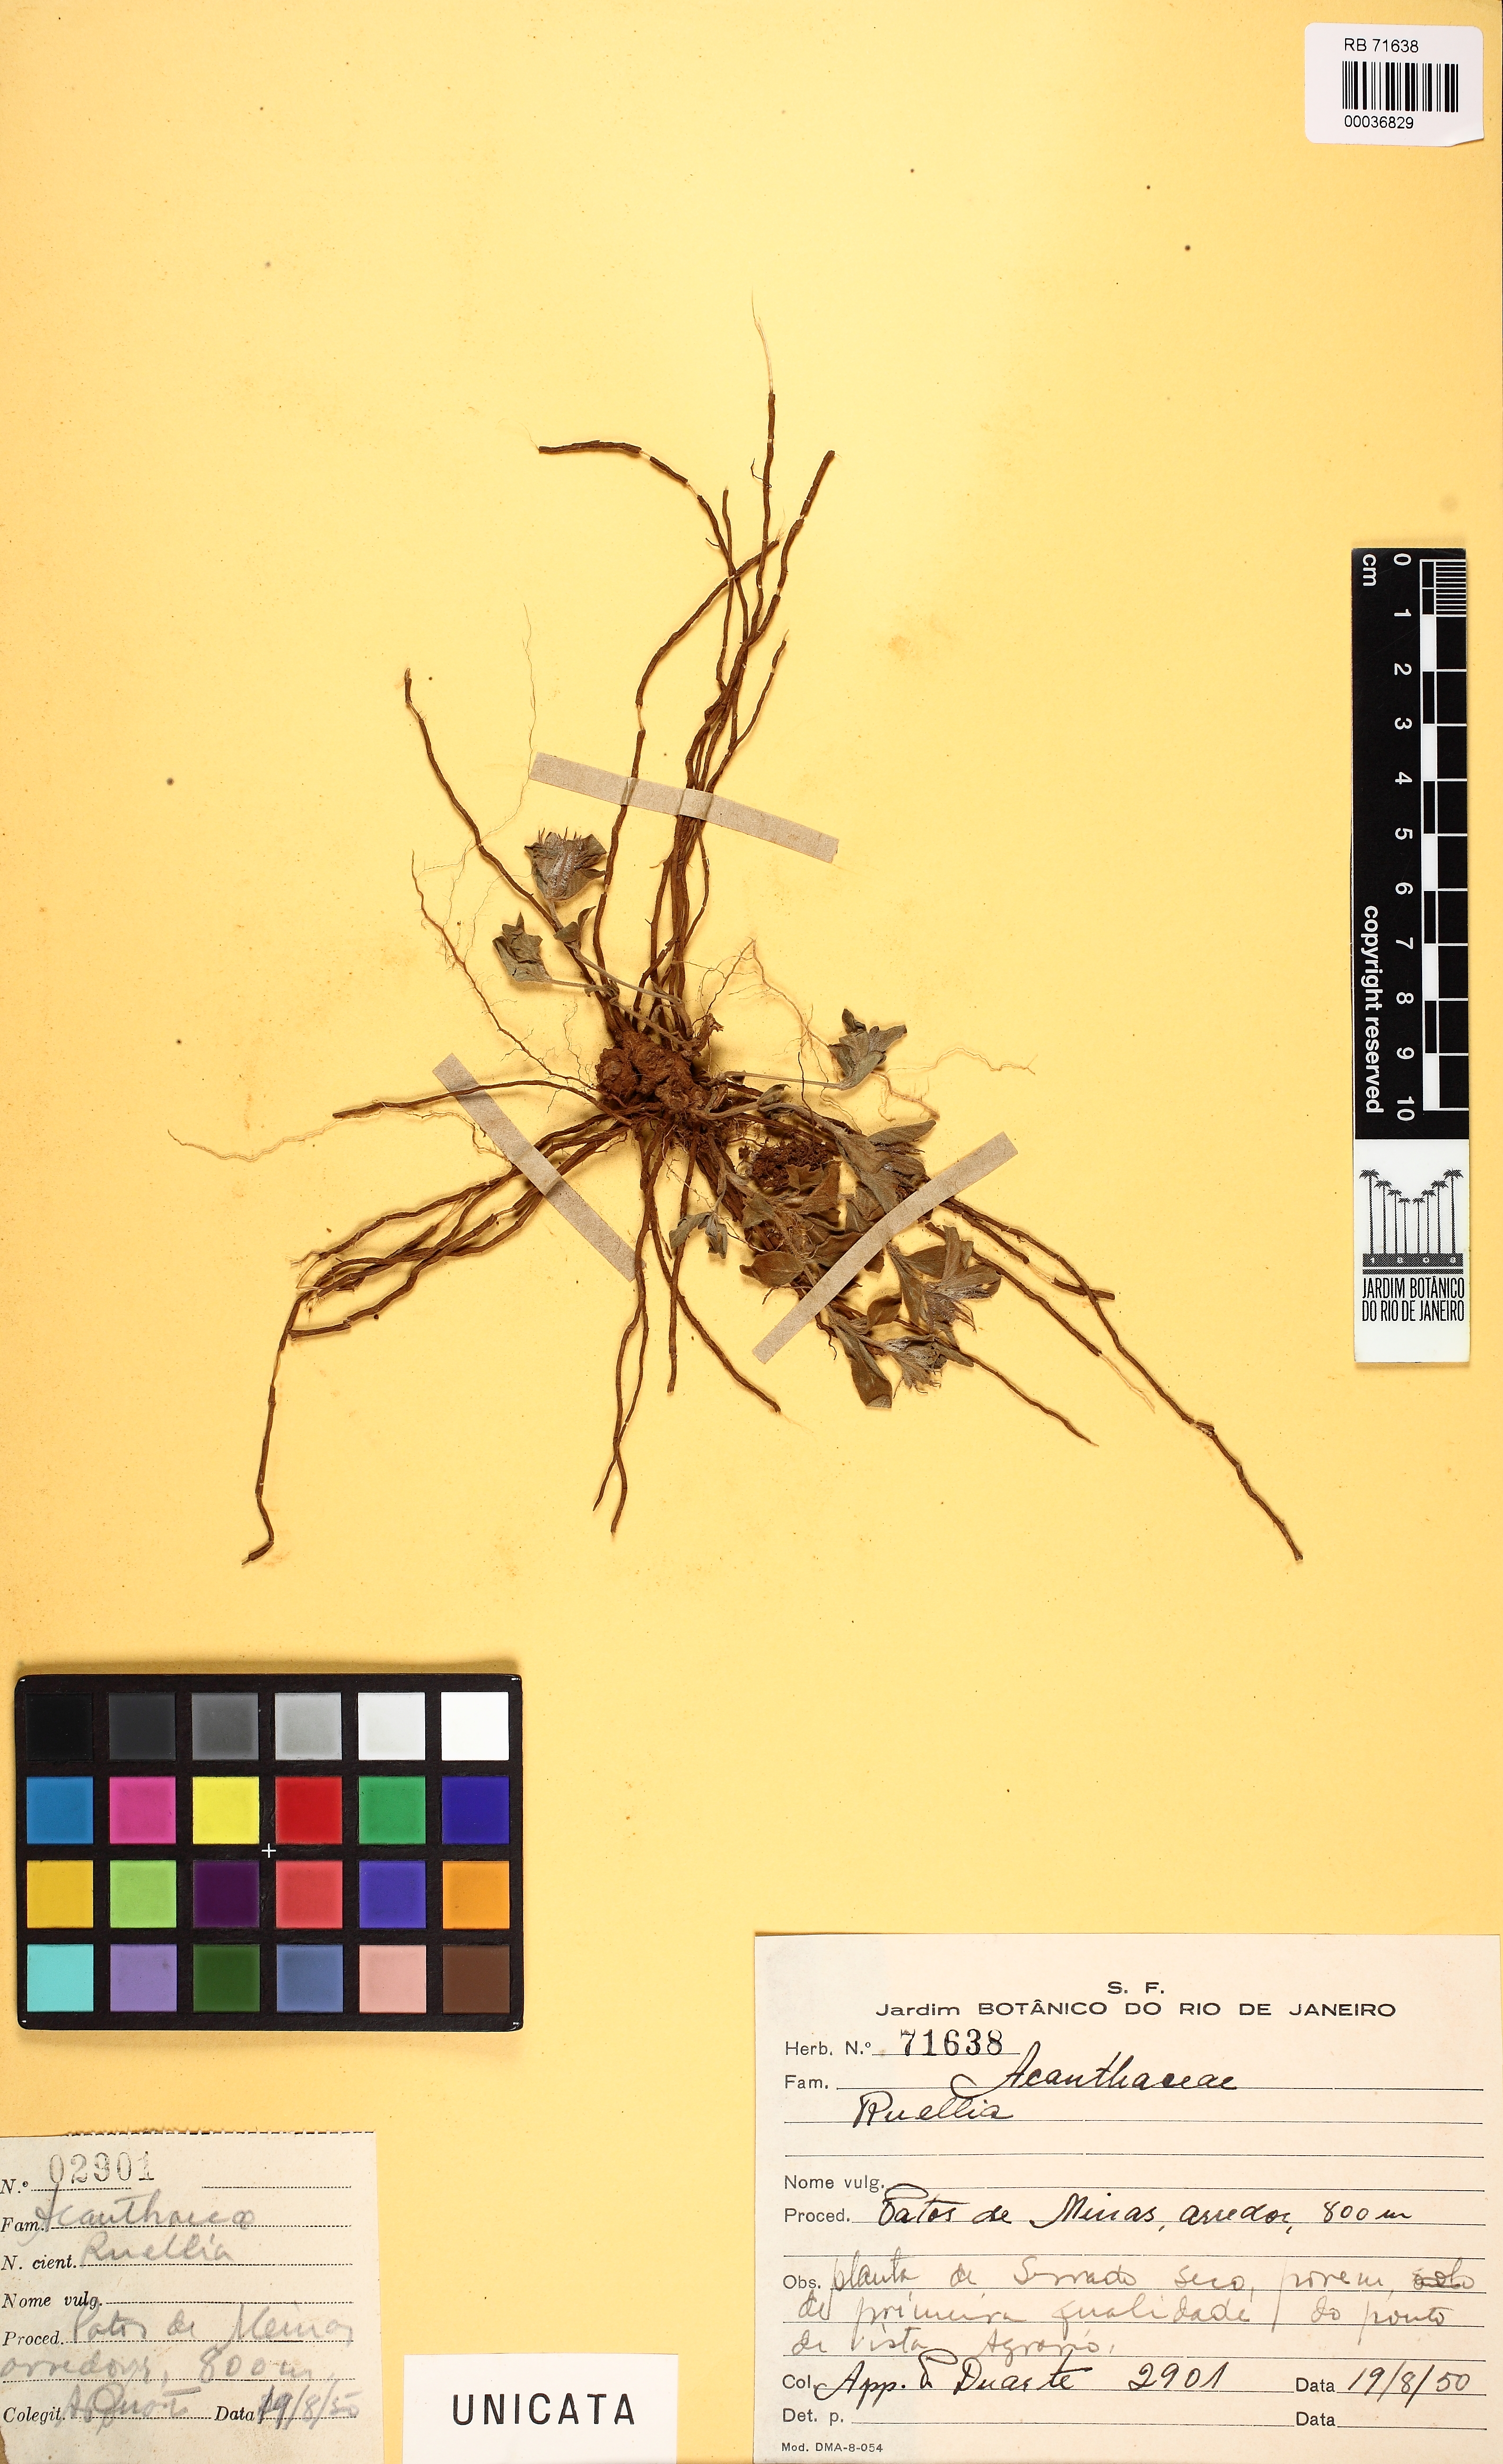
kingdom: Plantae
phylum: Tracheophyta
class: Magnoliopsida
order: Lamiales
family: Acanthaceae
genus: Ruellia
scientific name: Ruellia
